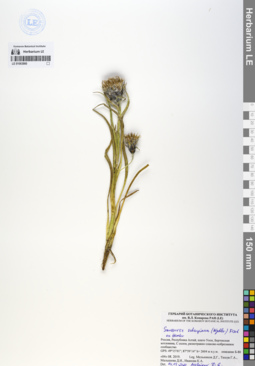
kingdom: Plantae
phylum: Tracheophyta
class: Magnoliopsida
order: Asterales
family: Asteraceae
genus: Saussurea
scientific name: Saussurea schanginiana
